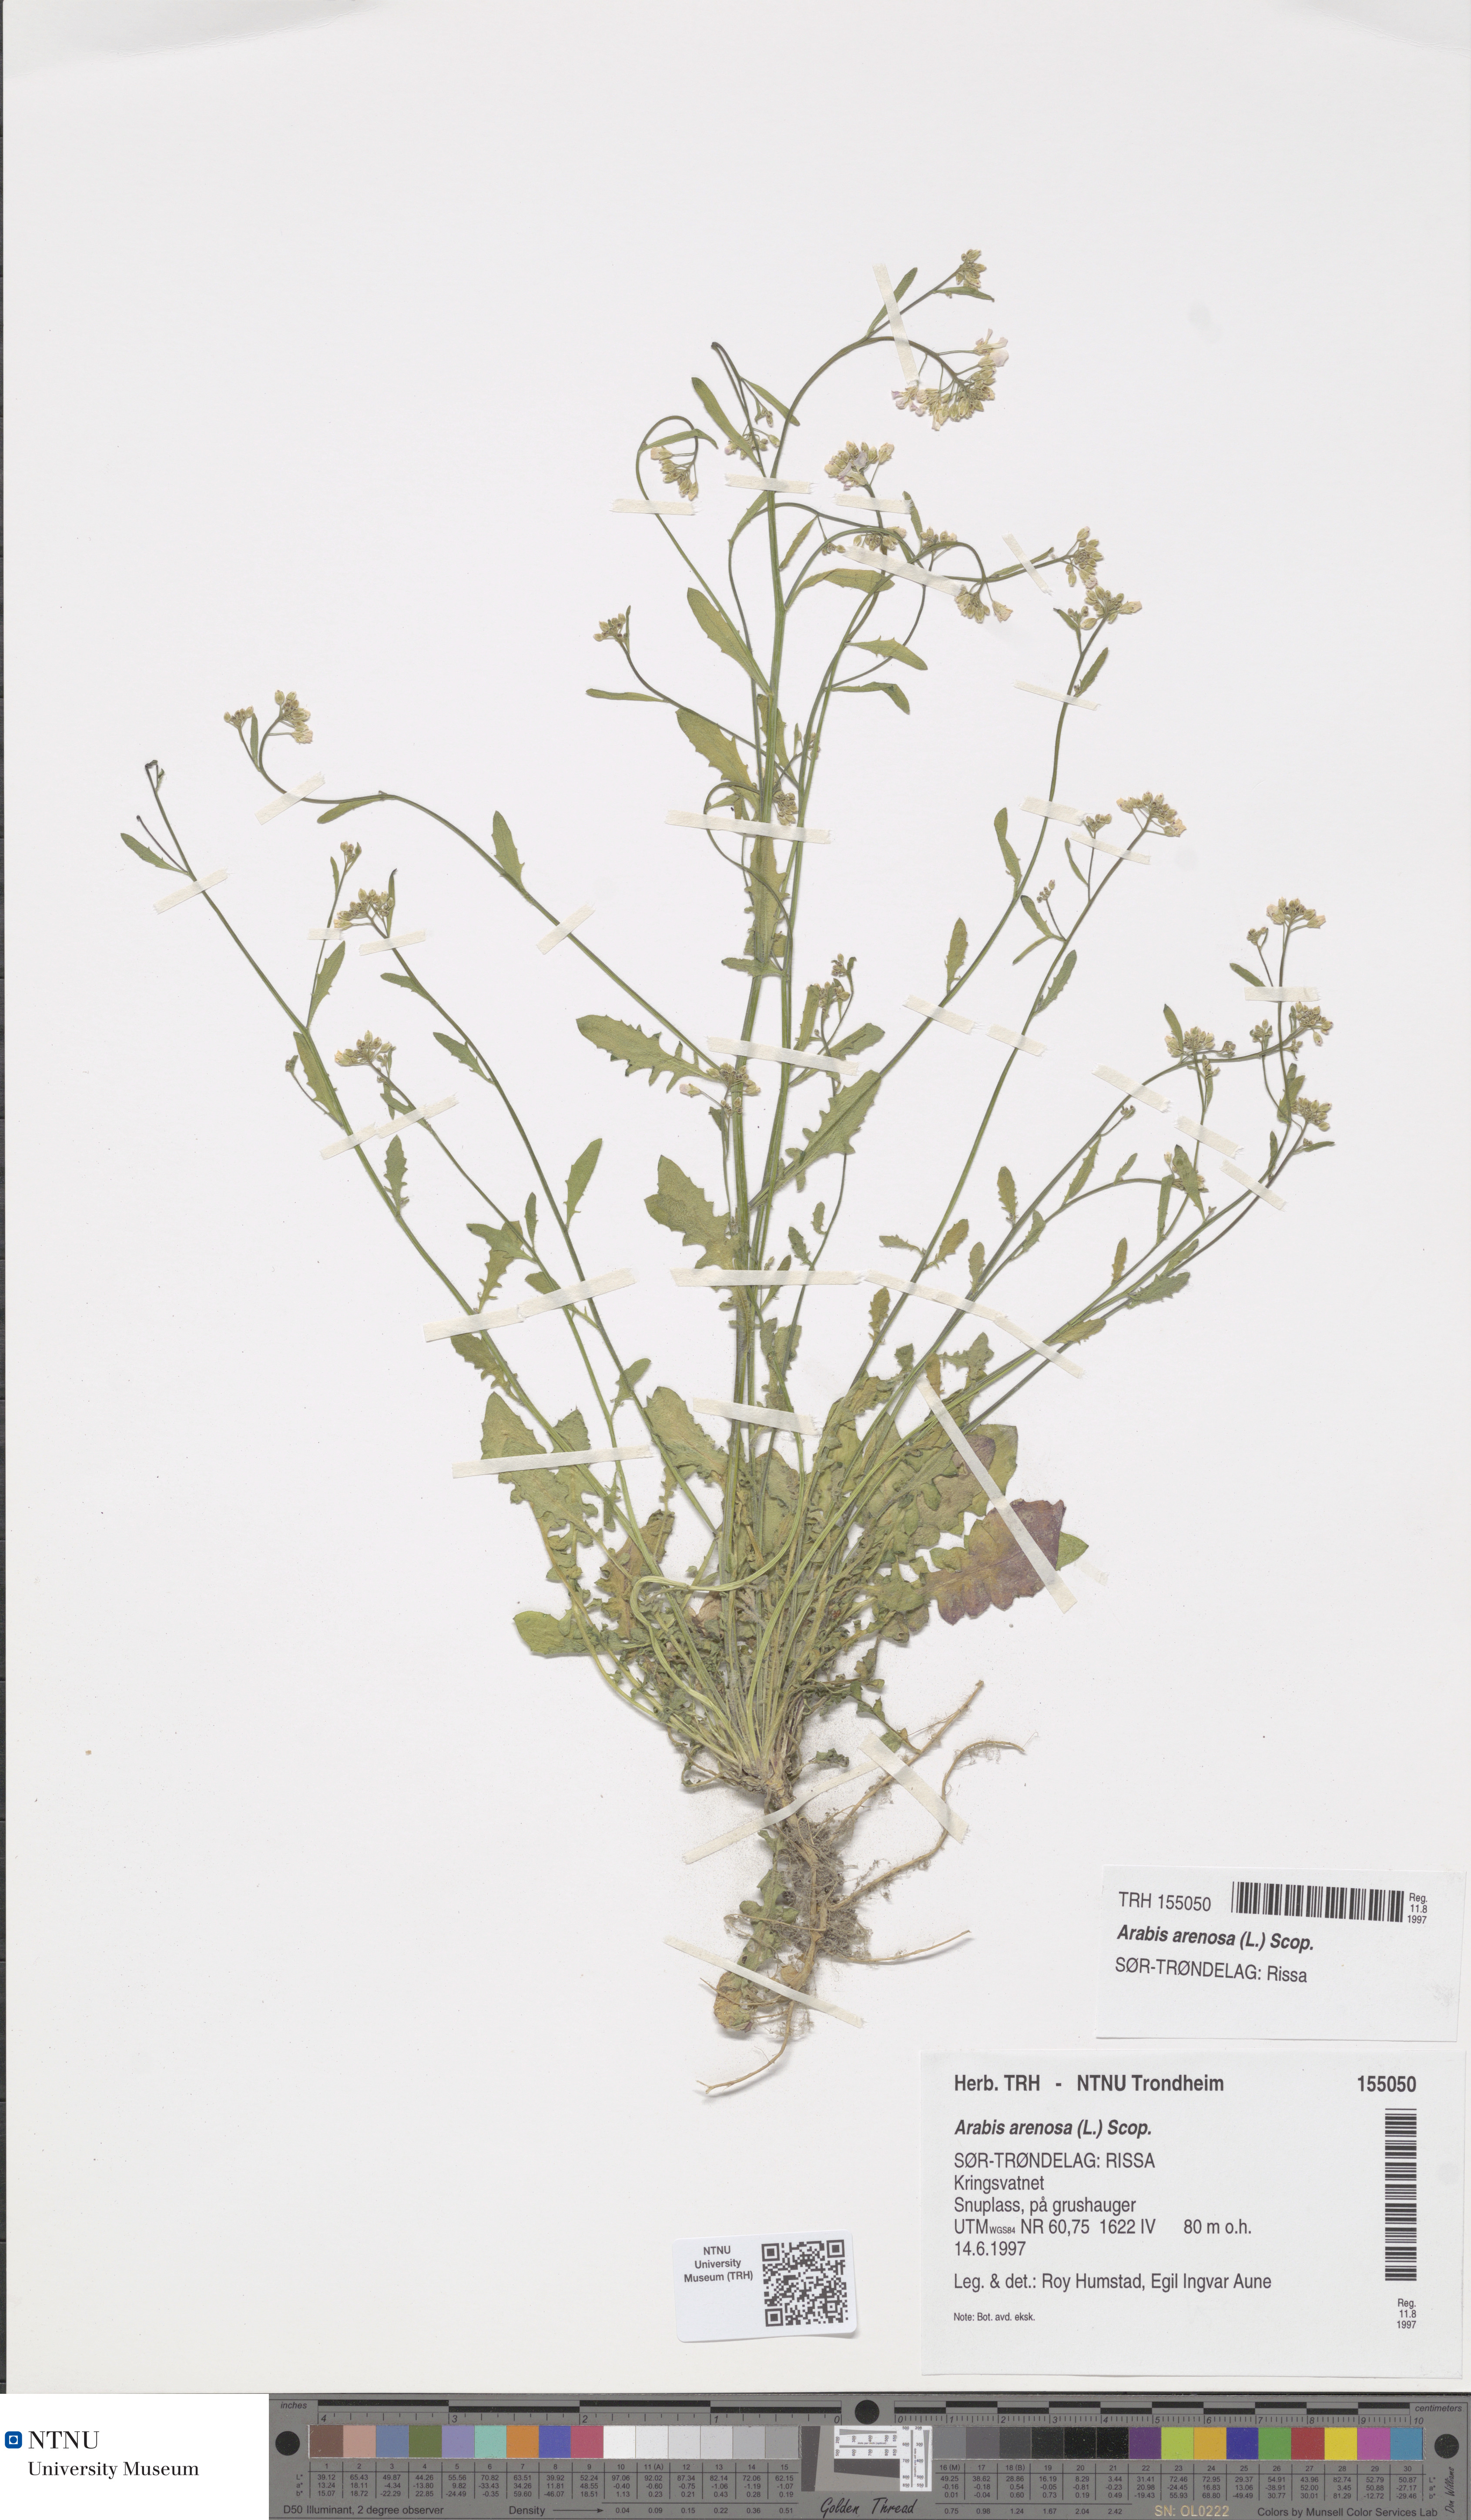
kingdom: Plantae
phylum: Tracheophyta
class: Magnoliopsida
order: Brassicales
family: Brassicaceae
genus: Arabidopsis
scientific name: Arabidopsis arenosa
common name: Sand rock-cress
